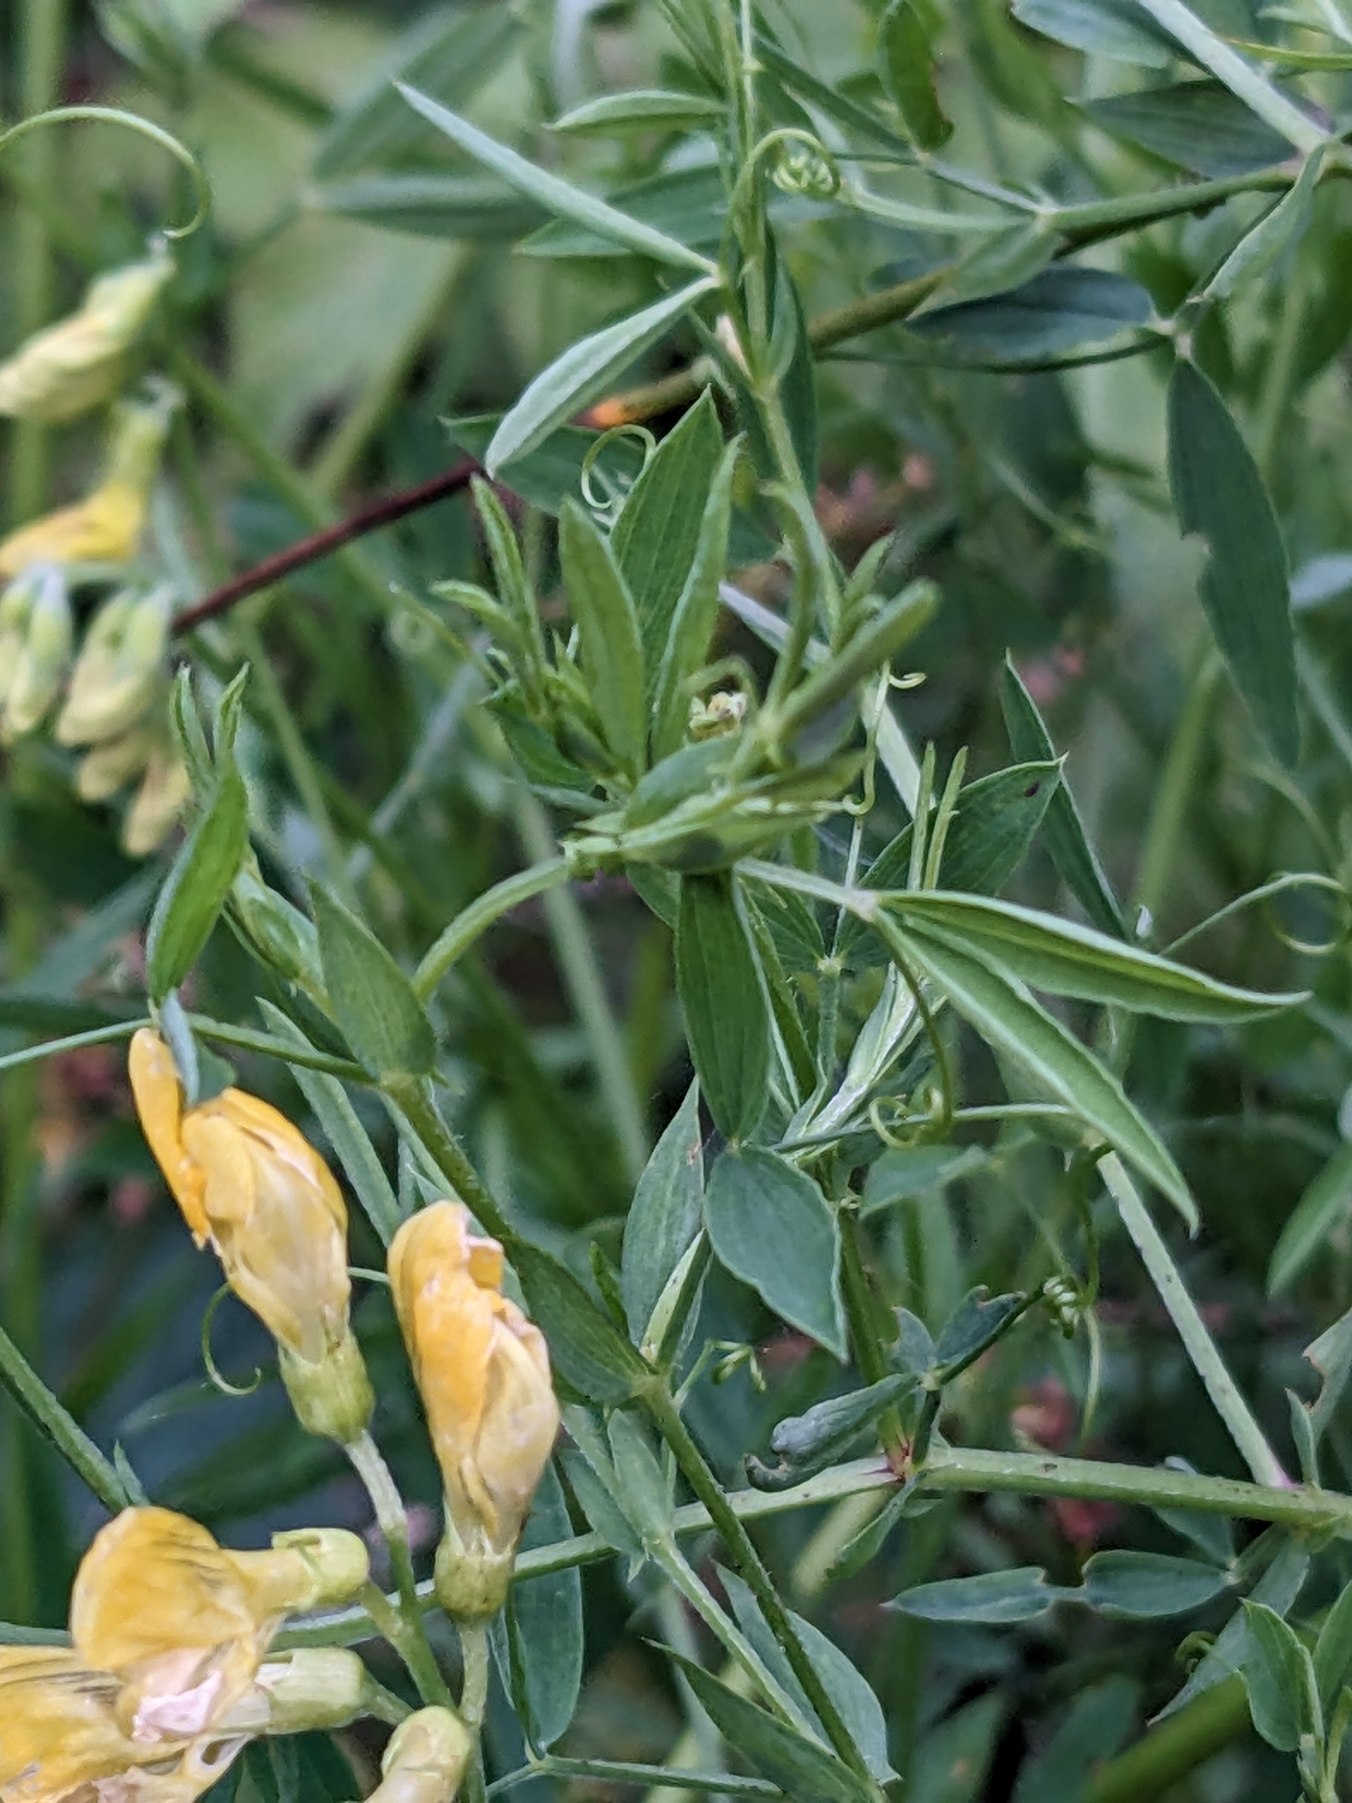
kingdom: Plantae
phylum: Tracheophyta
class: Magnoliopsida
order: Fabales
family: Fabaceae
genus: Lathyrus
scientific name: Lathyrus pratensis
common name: Gul fladbælg
